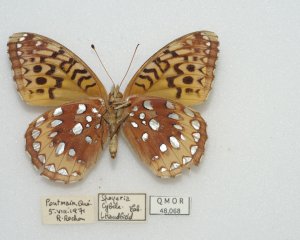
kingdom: Animalia
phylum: Arthropoda
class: Insecta
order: Lepidoptera
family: Nymphalidae
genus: Speyeria
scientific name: Speyeria cybele
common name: Great Spangled Fritillary
